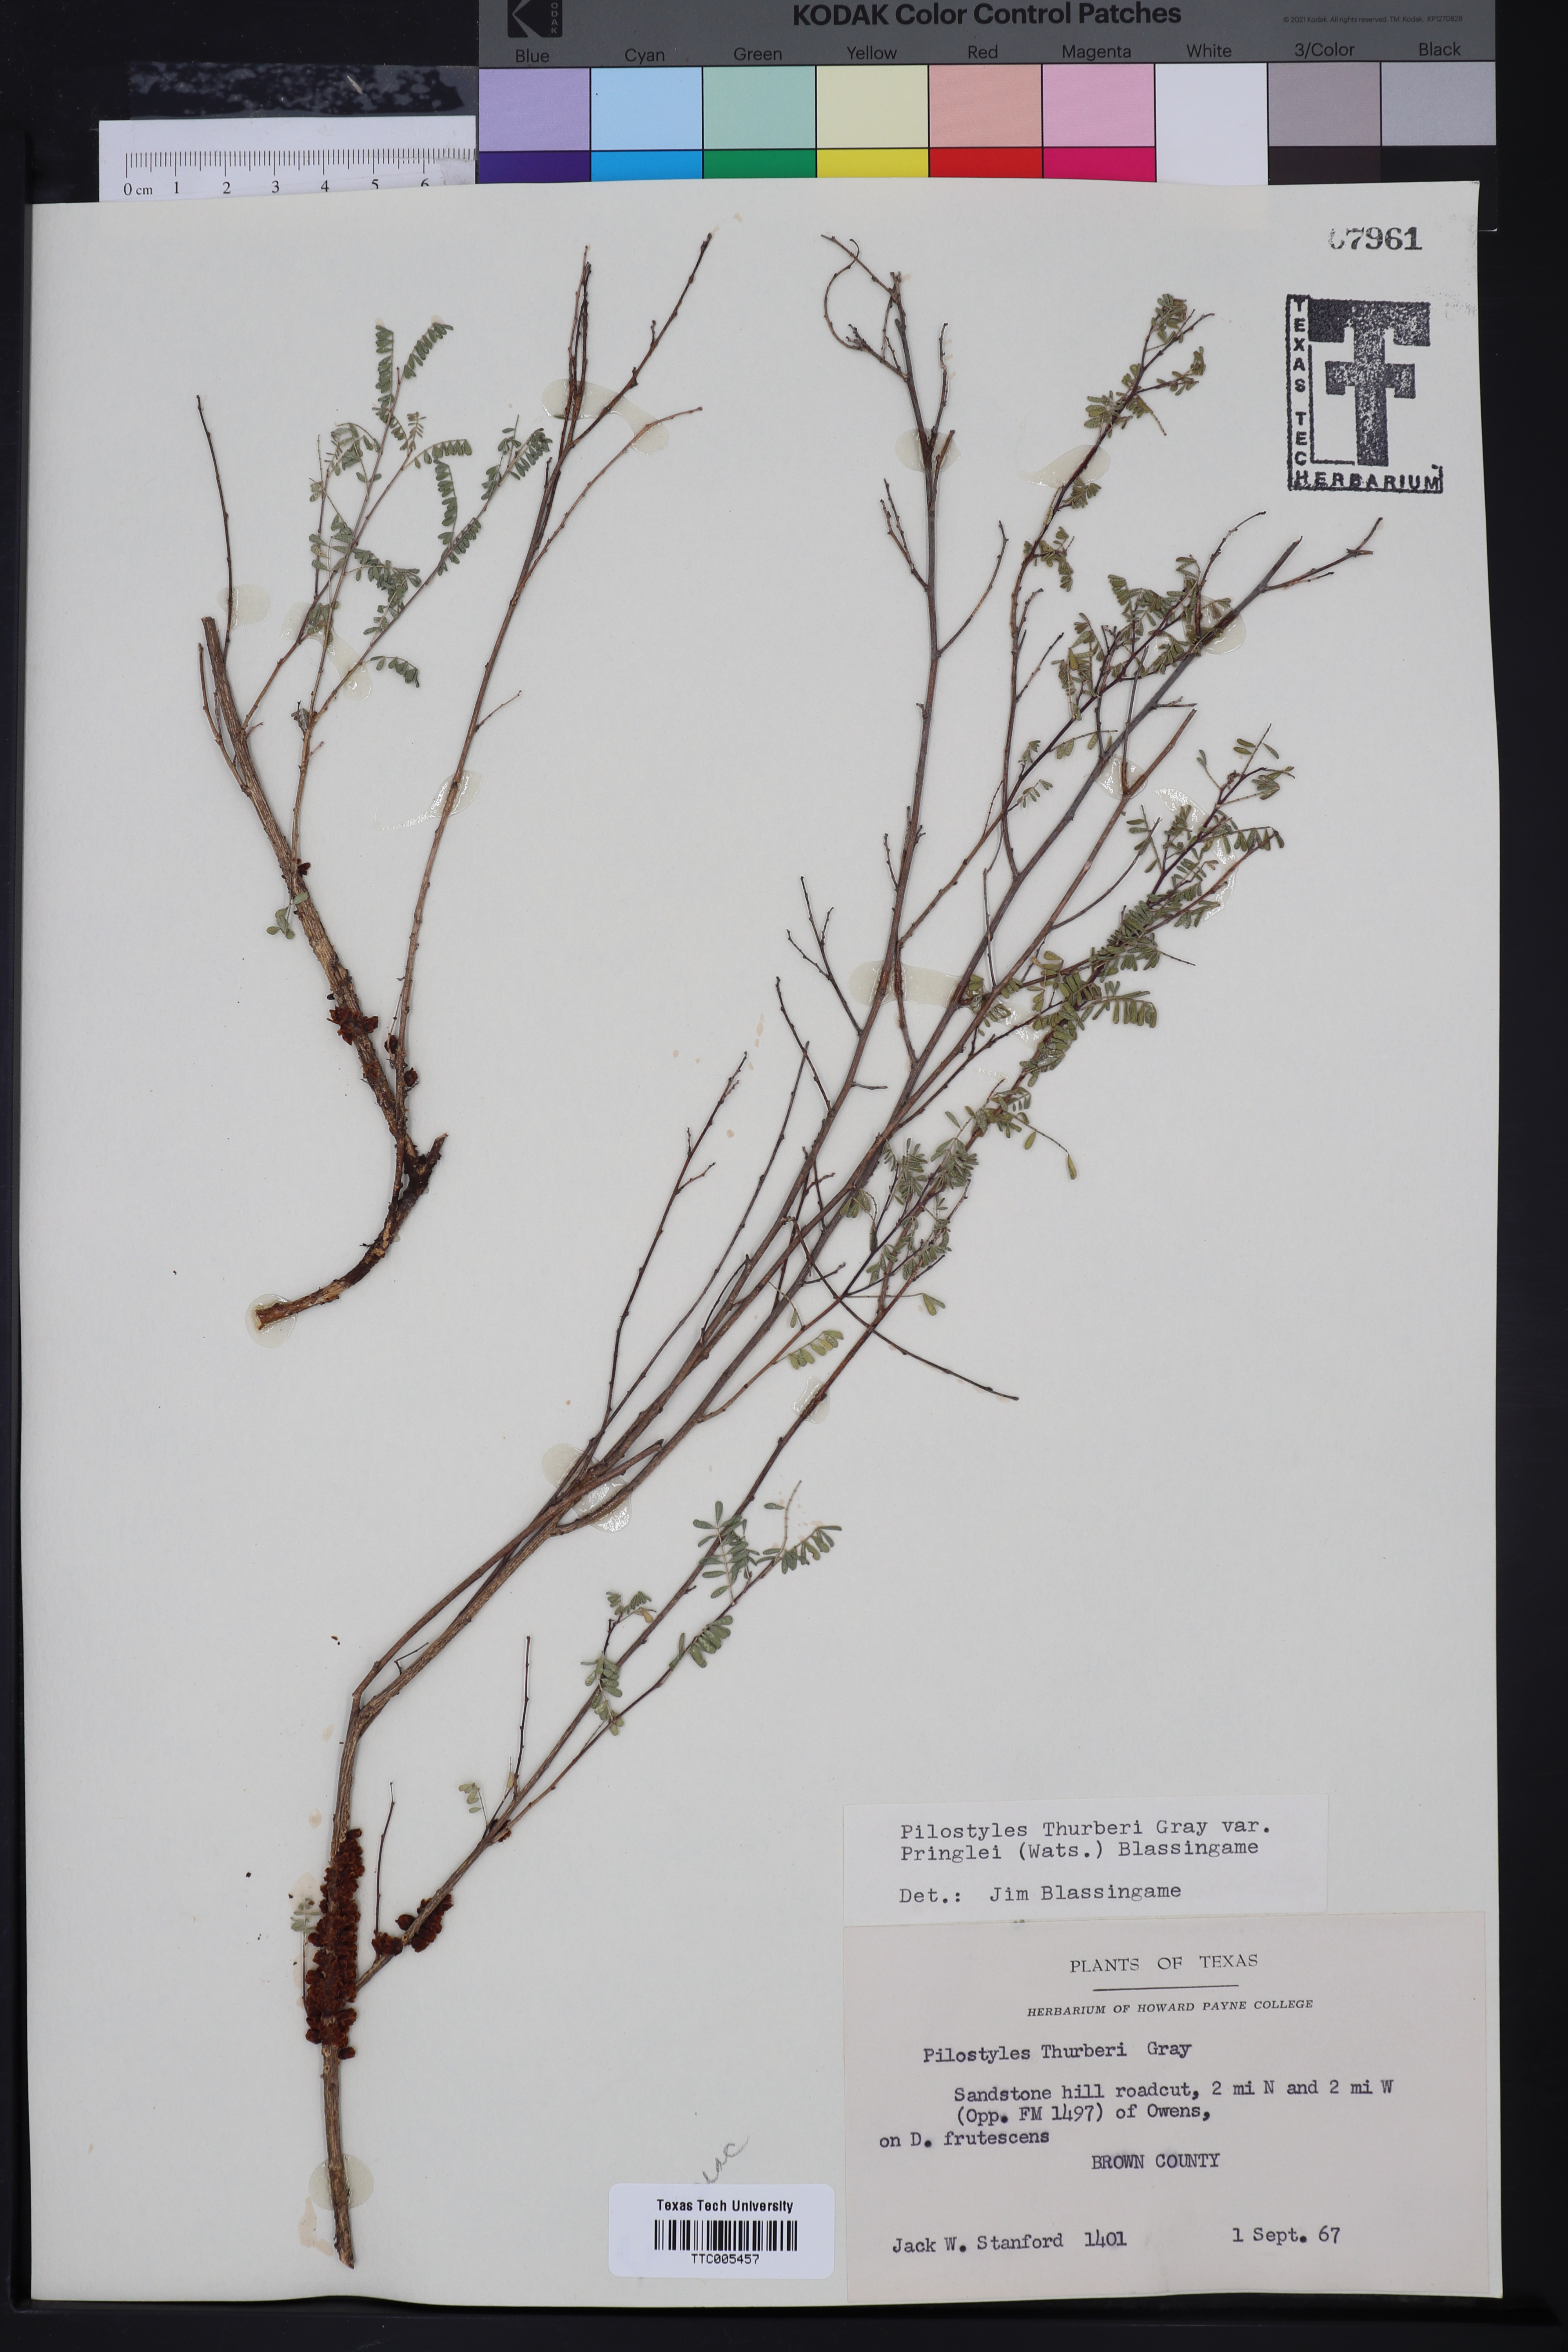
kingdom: Plantae
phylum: Tracheophyta
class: Magnoliopsida
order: Cucurbitales
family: Apodanthaceae
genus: Pilostyles
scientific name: Pilostyles thurberi
